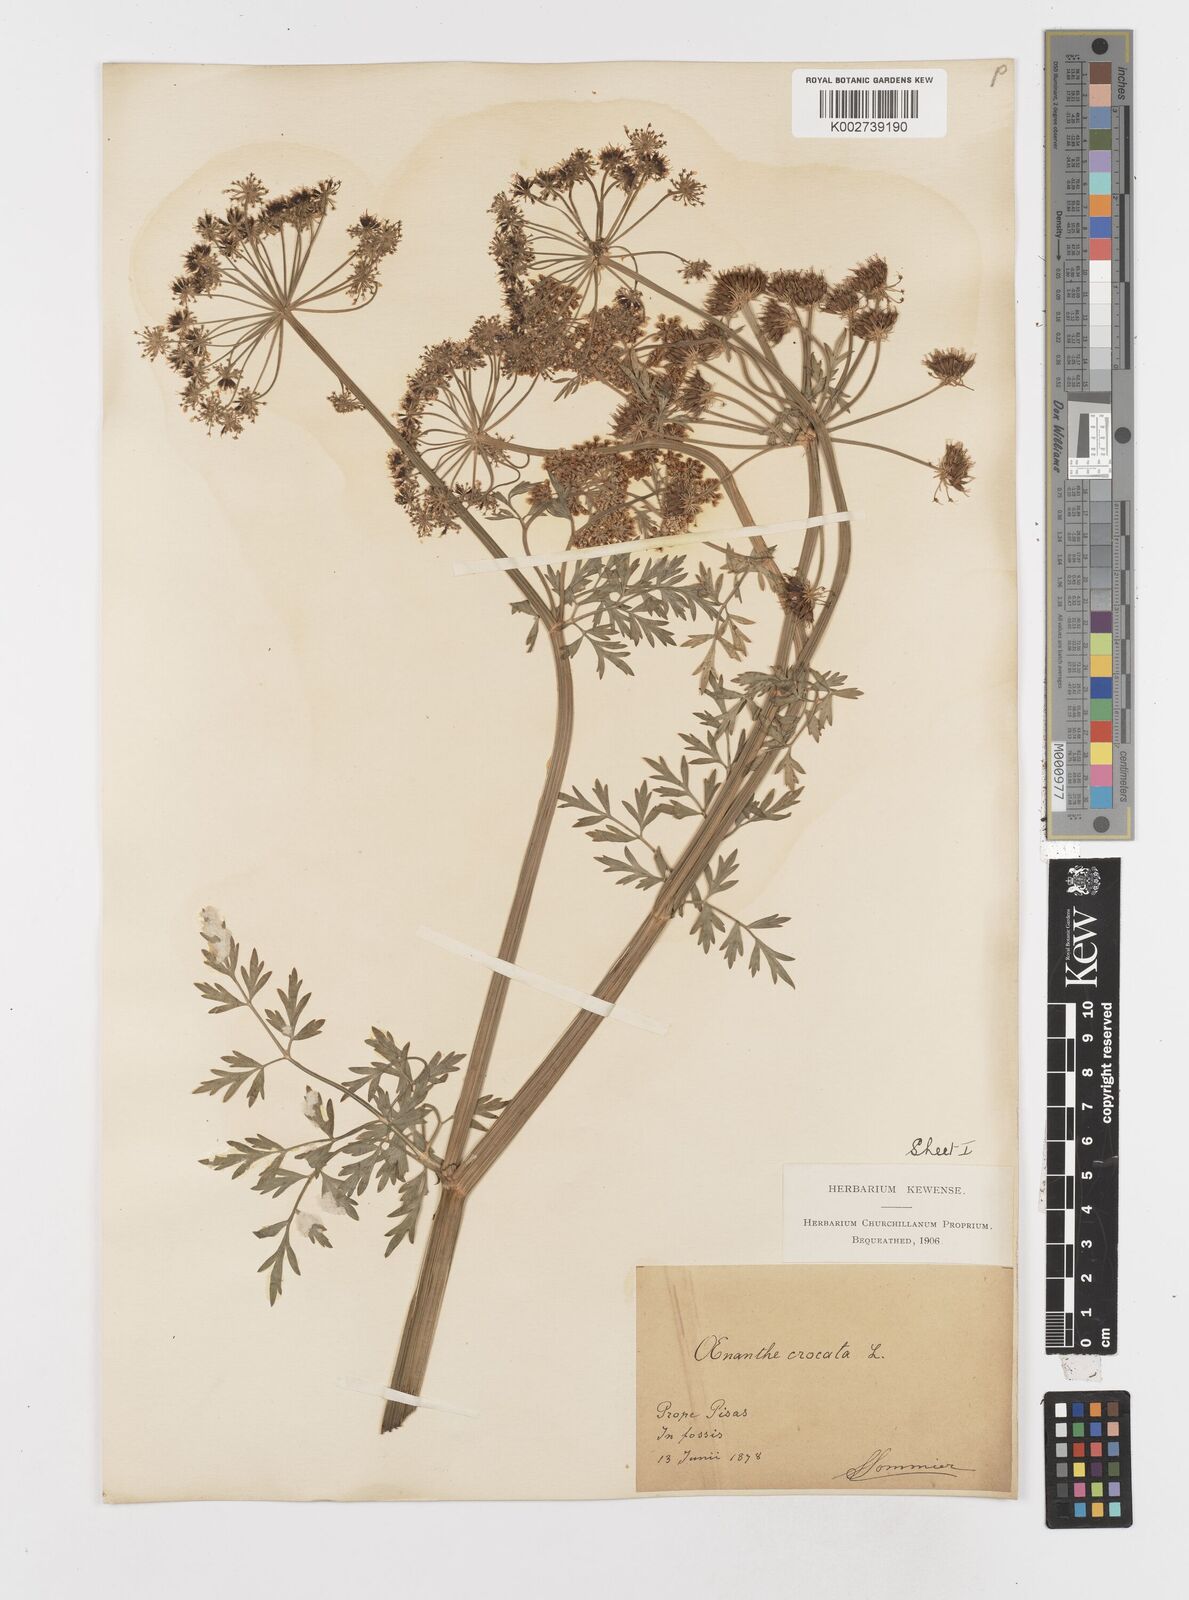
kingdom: Plantae
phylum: Tracheophyta
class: Magnoliopsida
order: Apiales
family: Apiaceae
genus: Oenanthe
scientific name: Oenanthe crocata
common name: Hemlock water-dropwort
